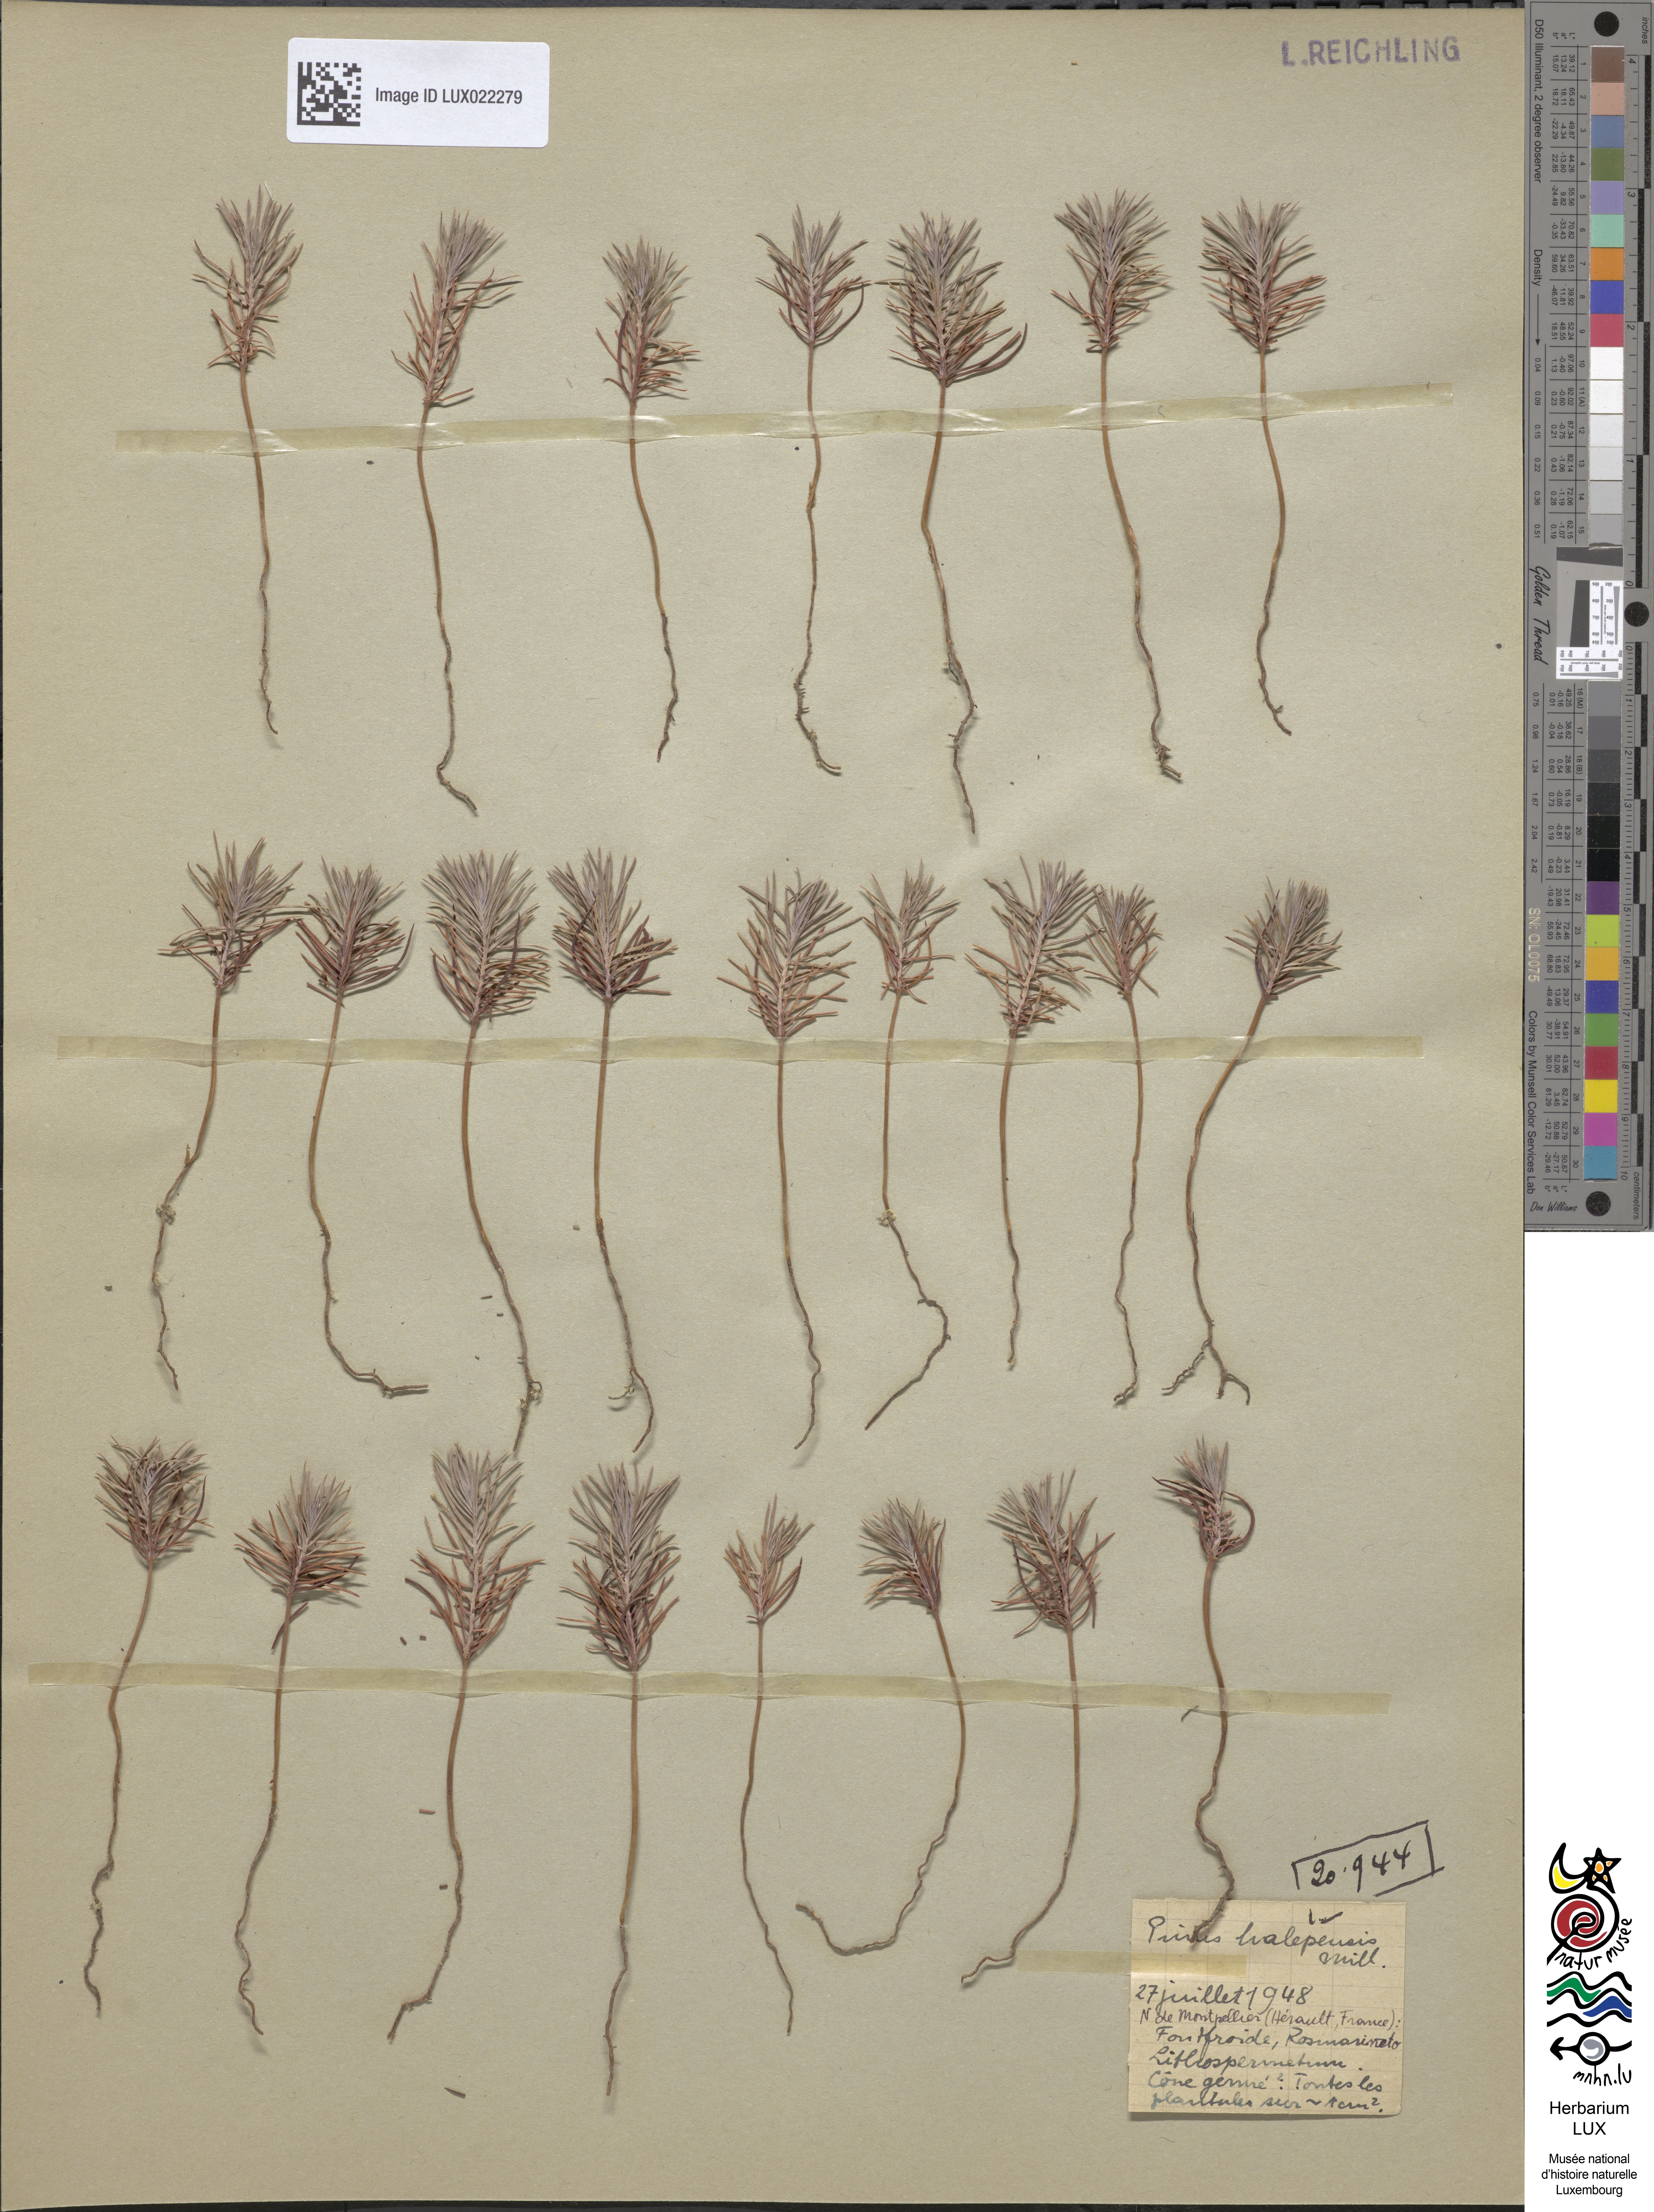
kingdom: Plantae
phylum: Tracheophyta
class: Pinopsida
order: Pinales
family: Pinaceae
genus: Pinus
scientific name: Pinus halepensis
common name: Aleppo pine
